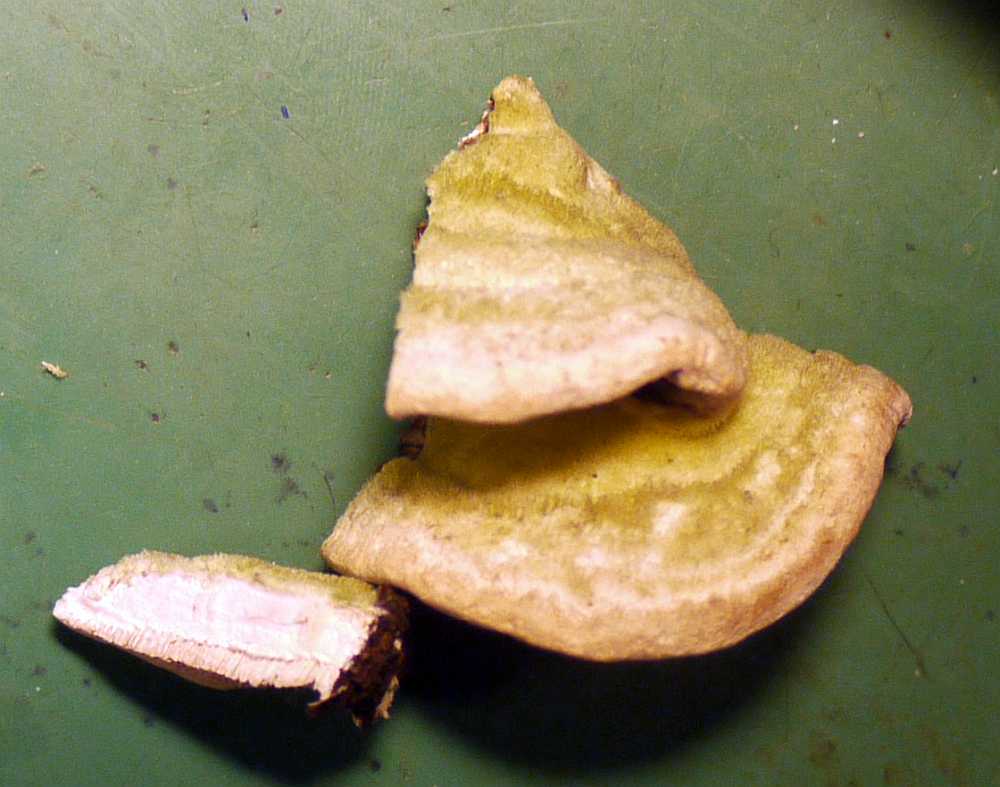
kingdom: Fungi
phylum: Basidiomycota
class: Agaricomycetes
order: Polyporales
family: Polyporaceae
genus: Trametes
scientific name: Trametes hirsuta
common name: håret læderporesvamp
